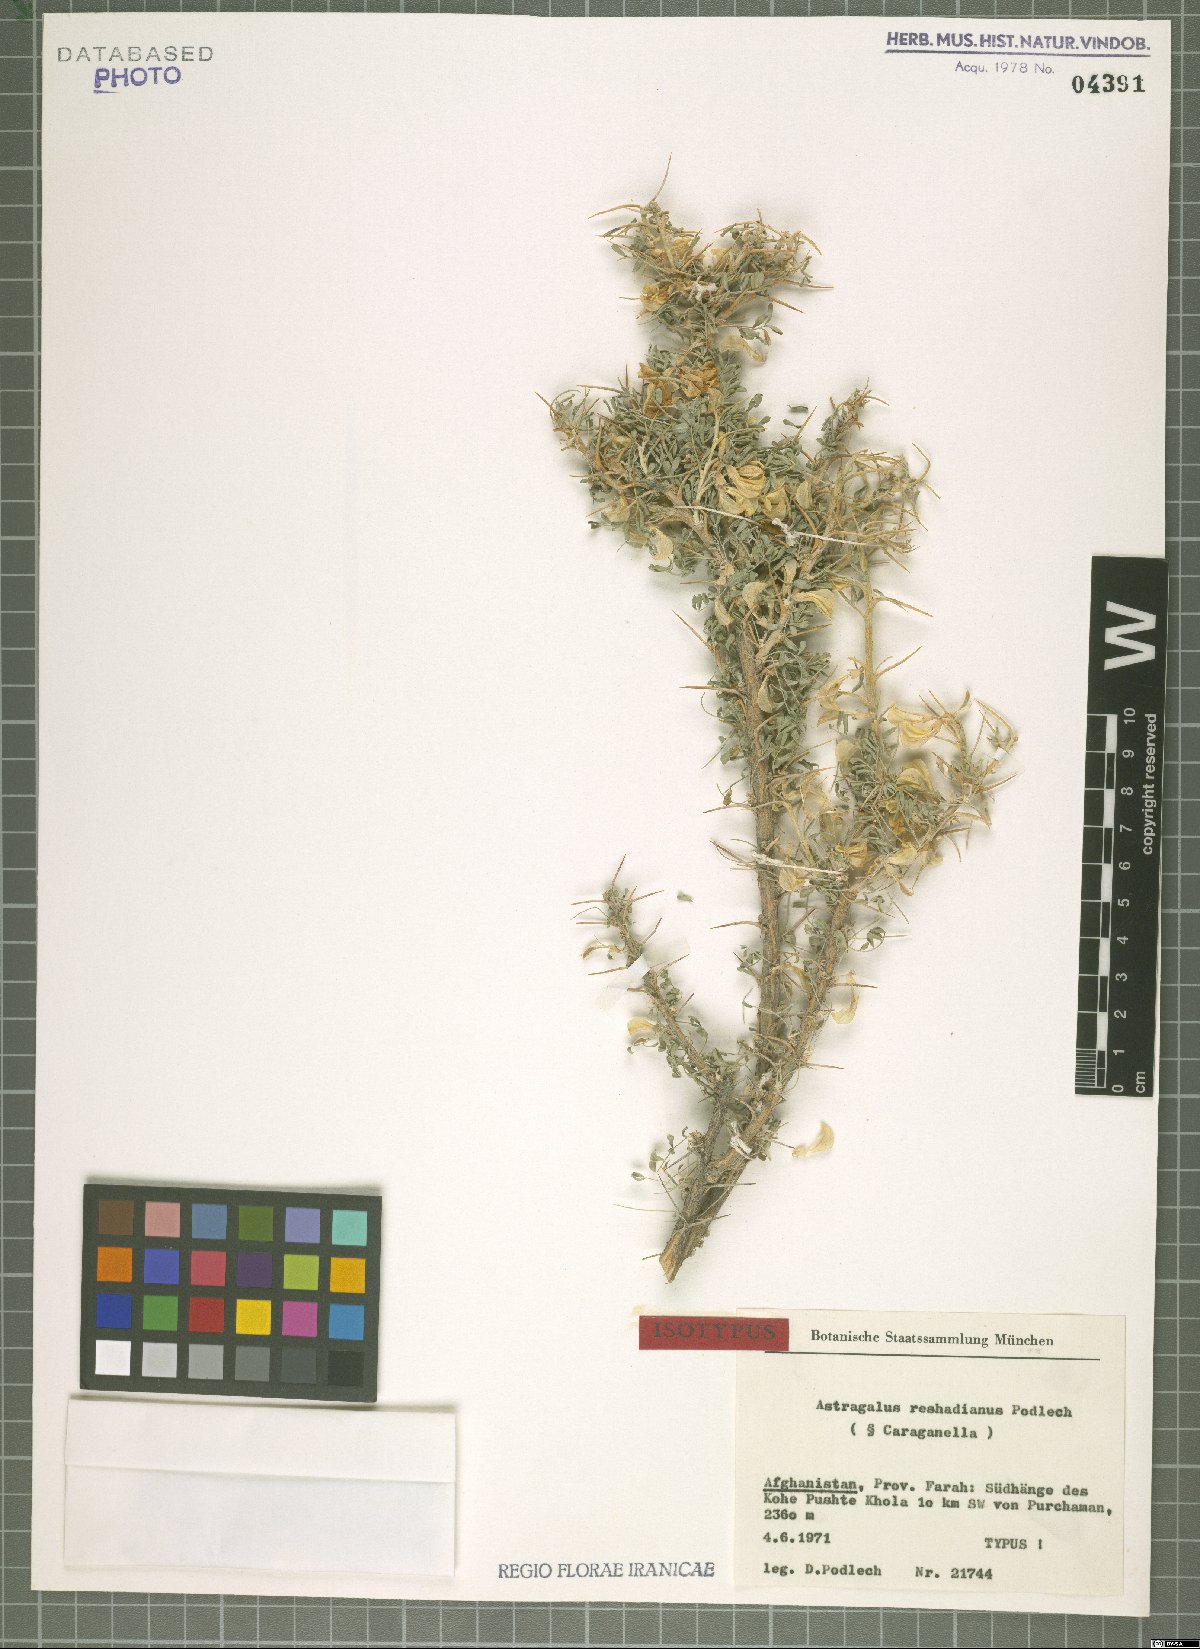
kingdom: Plantae
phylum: Tracheophyta
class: Magnoliopsida
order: Fabales
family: Fabaceae
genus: Astragalus
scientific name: Astragalus reshadianus
